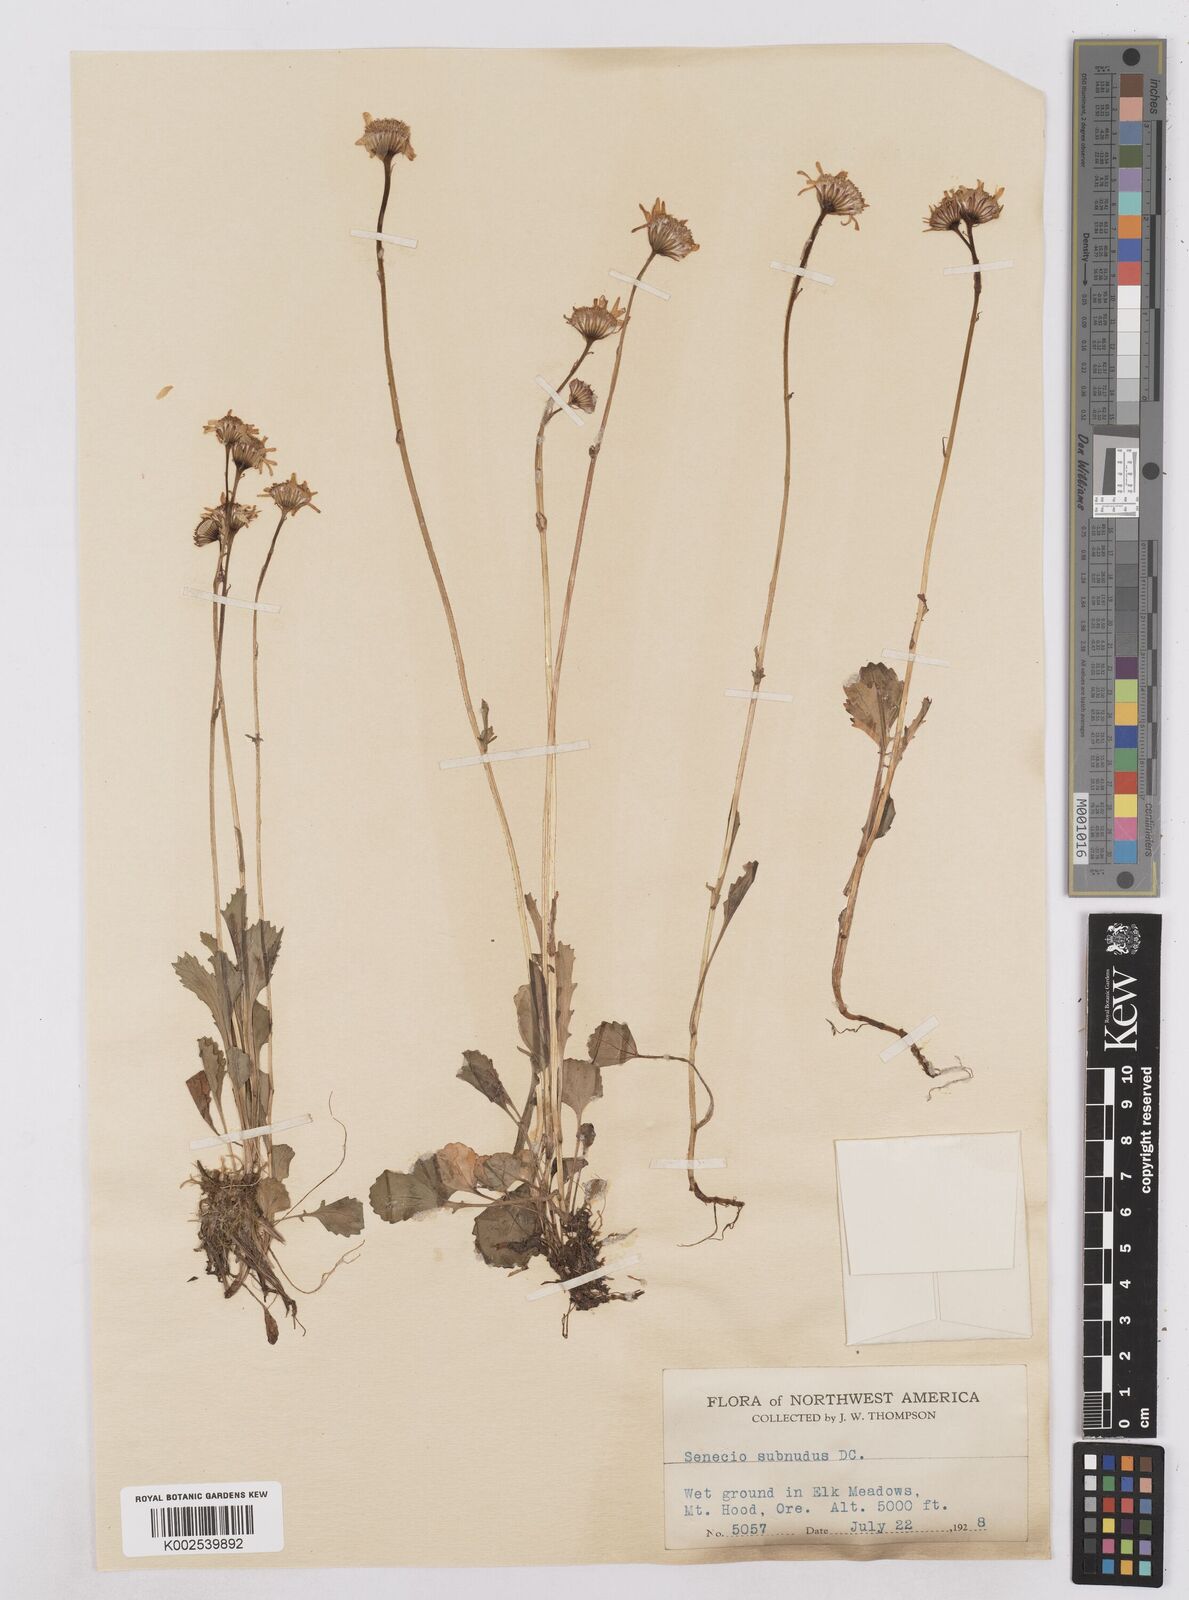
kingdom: Plantae
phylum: Tracheophyta
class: Magnoliopsida
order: Asterales
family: Asteraceae
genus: Packera
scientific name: Packera aurea
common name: Golden groundsel
